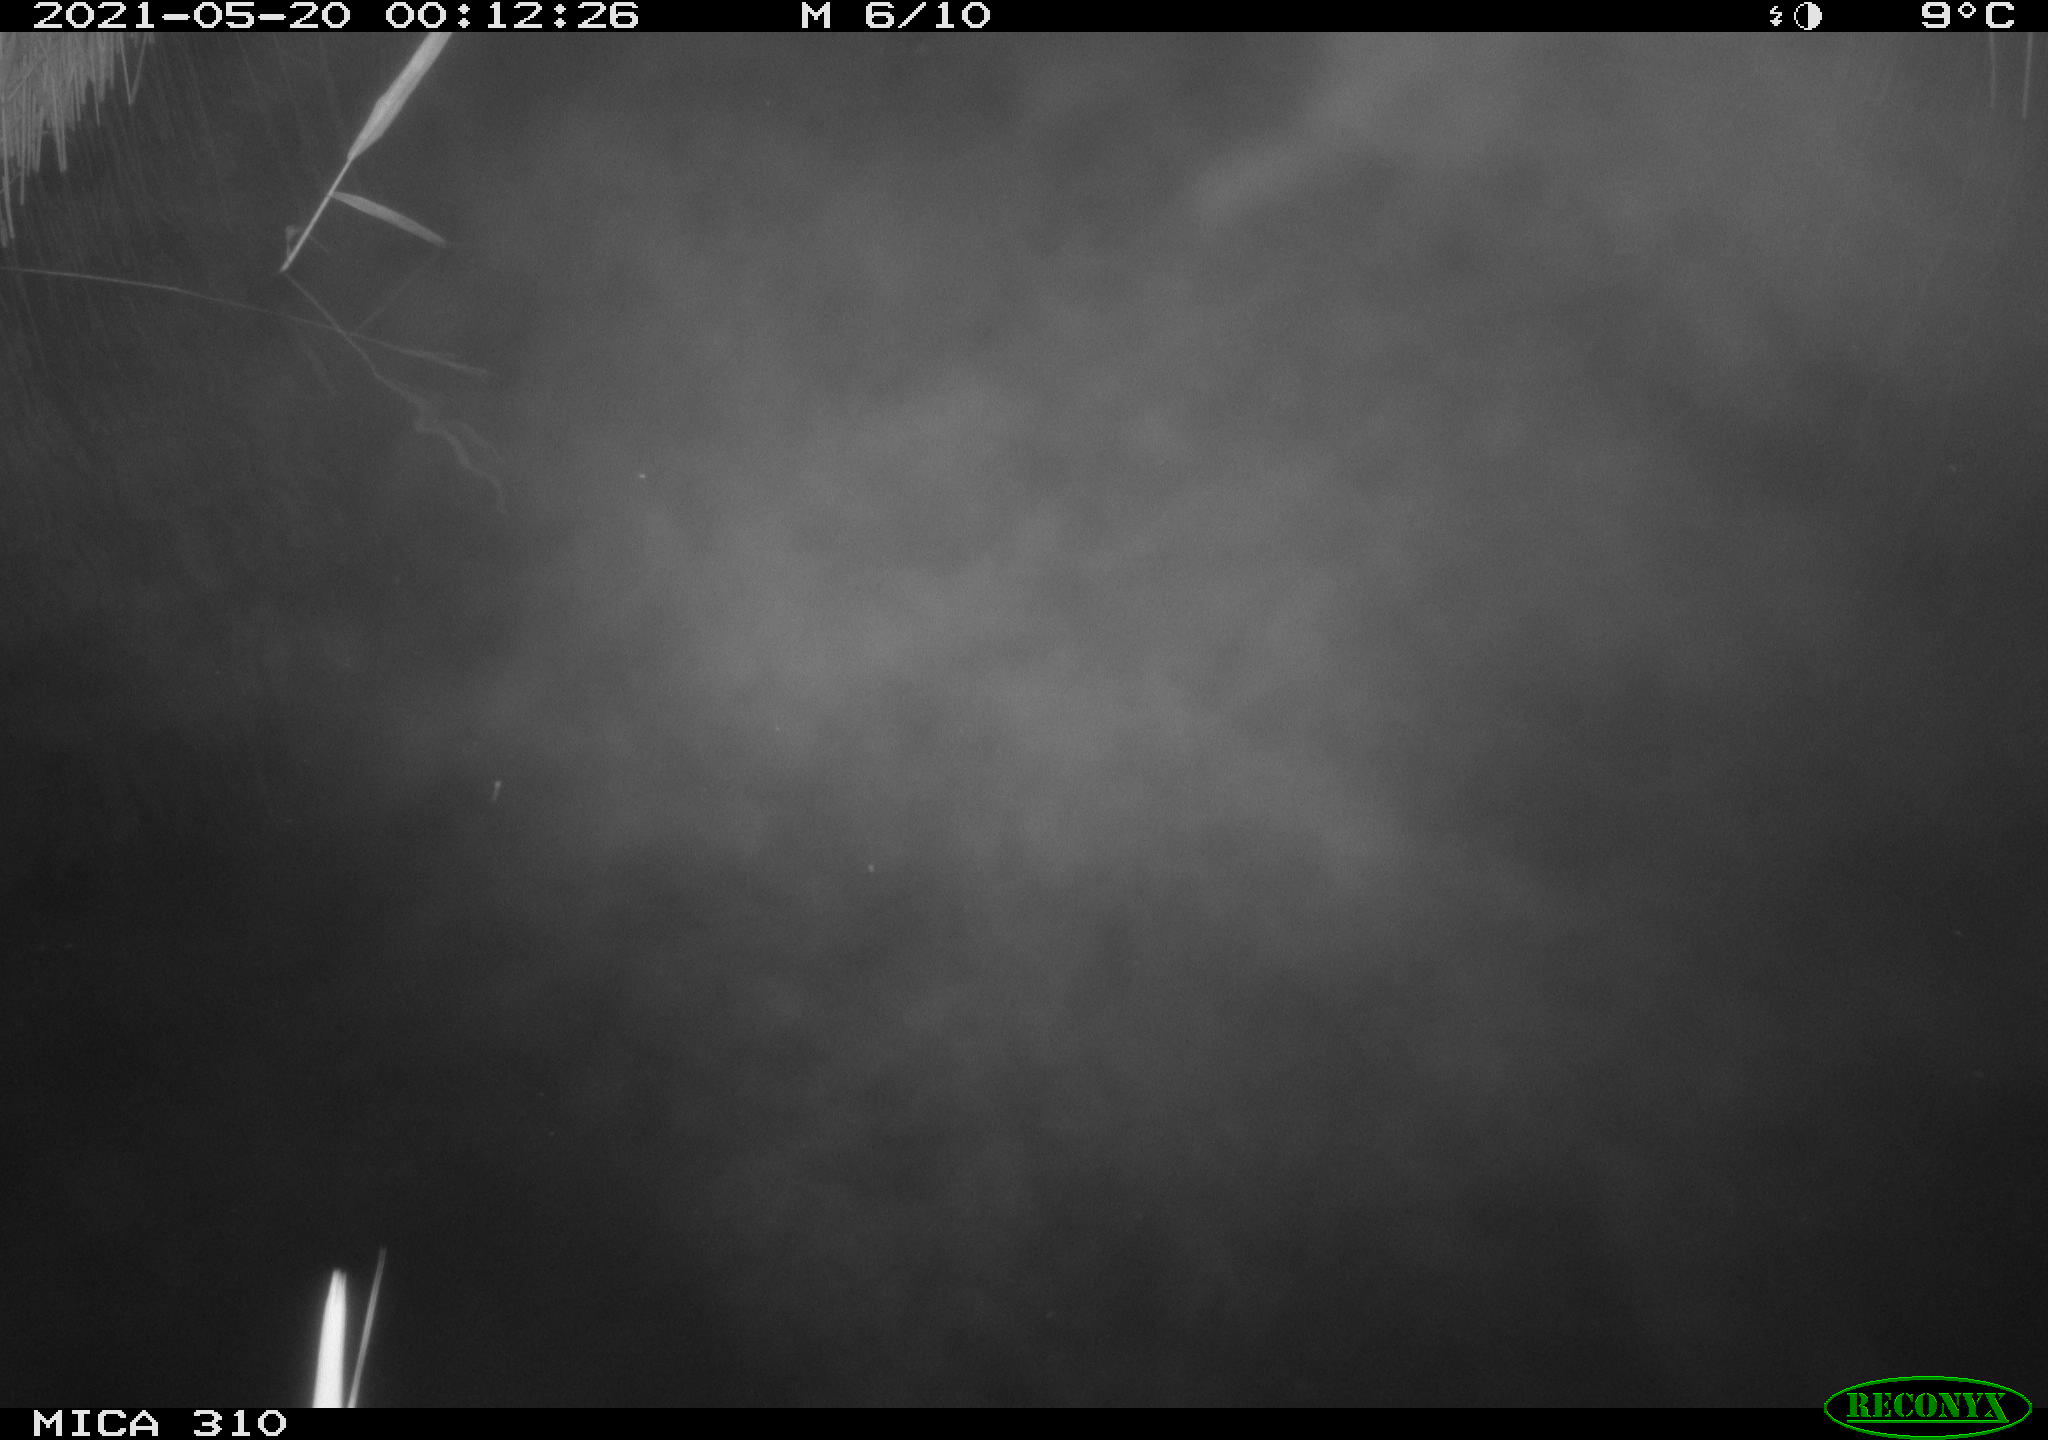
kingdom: Animalia
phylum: Chordata
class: Aves
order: Anseriformes
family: Anatidae
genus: Anas
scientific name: Anas platyrhynchos
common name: Mallard
